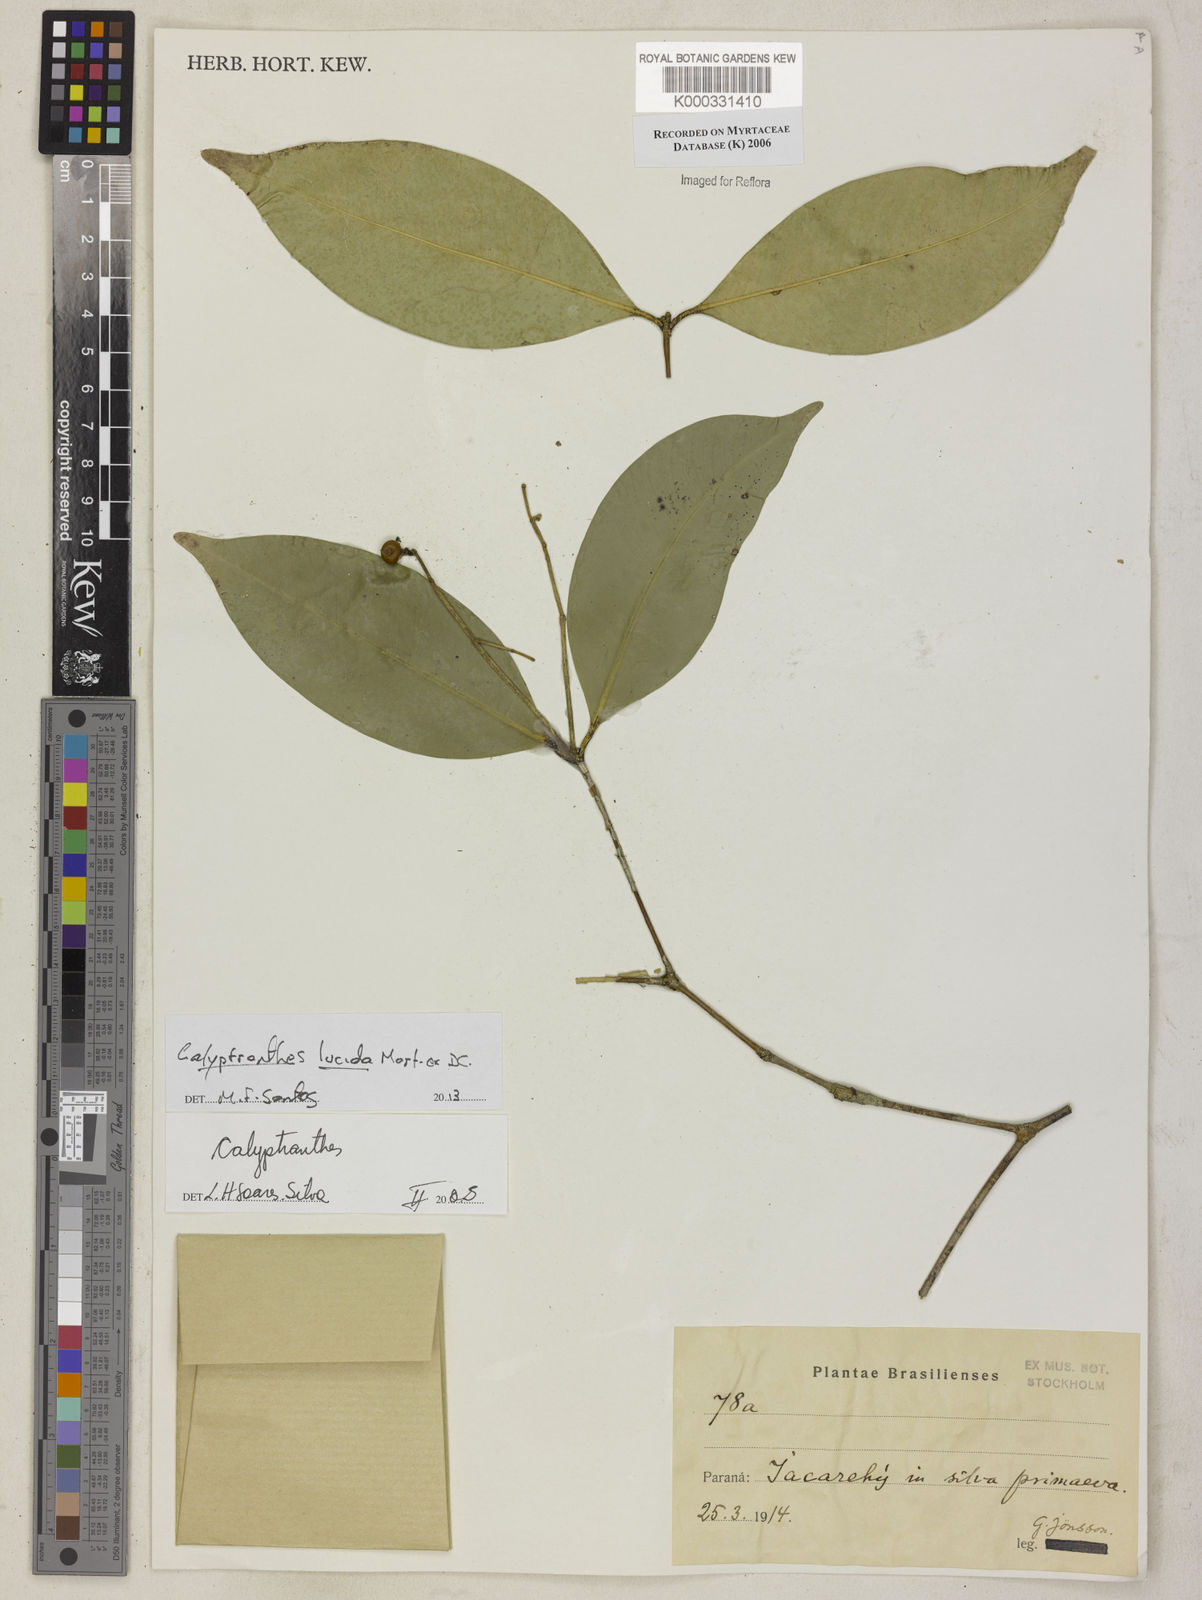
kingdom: Plantae
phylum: Tracheophyta
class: Magnoliopsida
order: Myrtales
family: Myrtaceae
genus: Calyptranthes
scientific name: Calyptranthes
